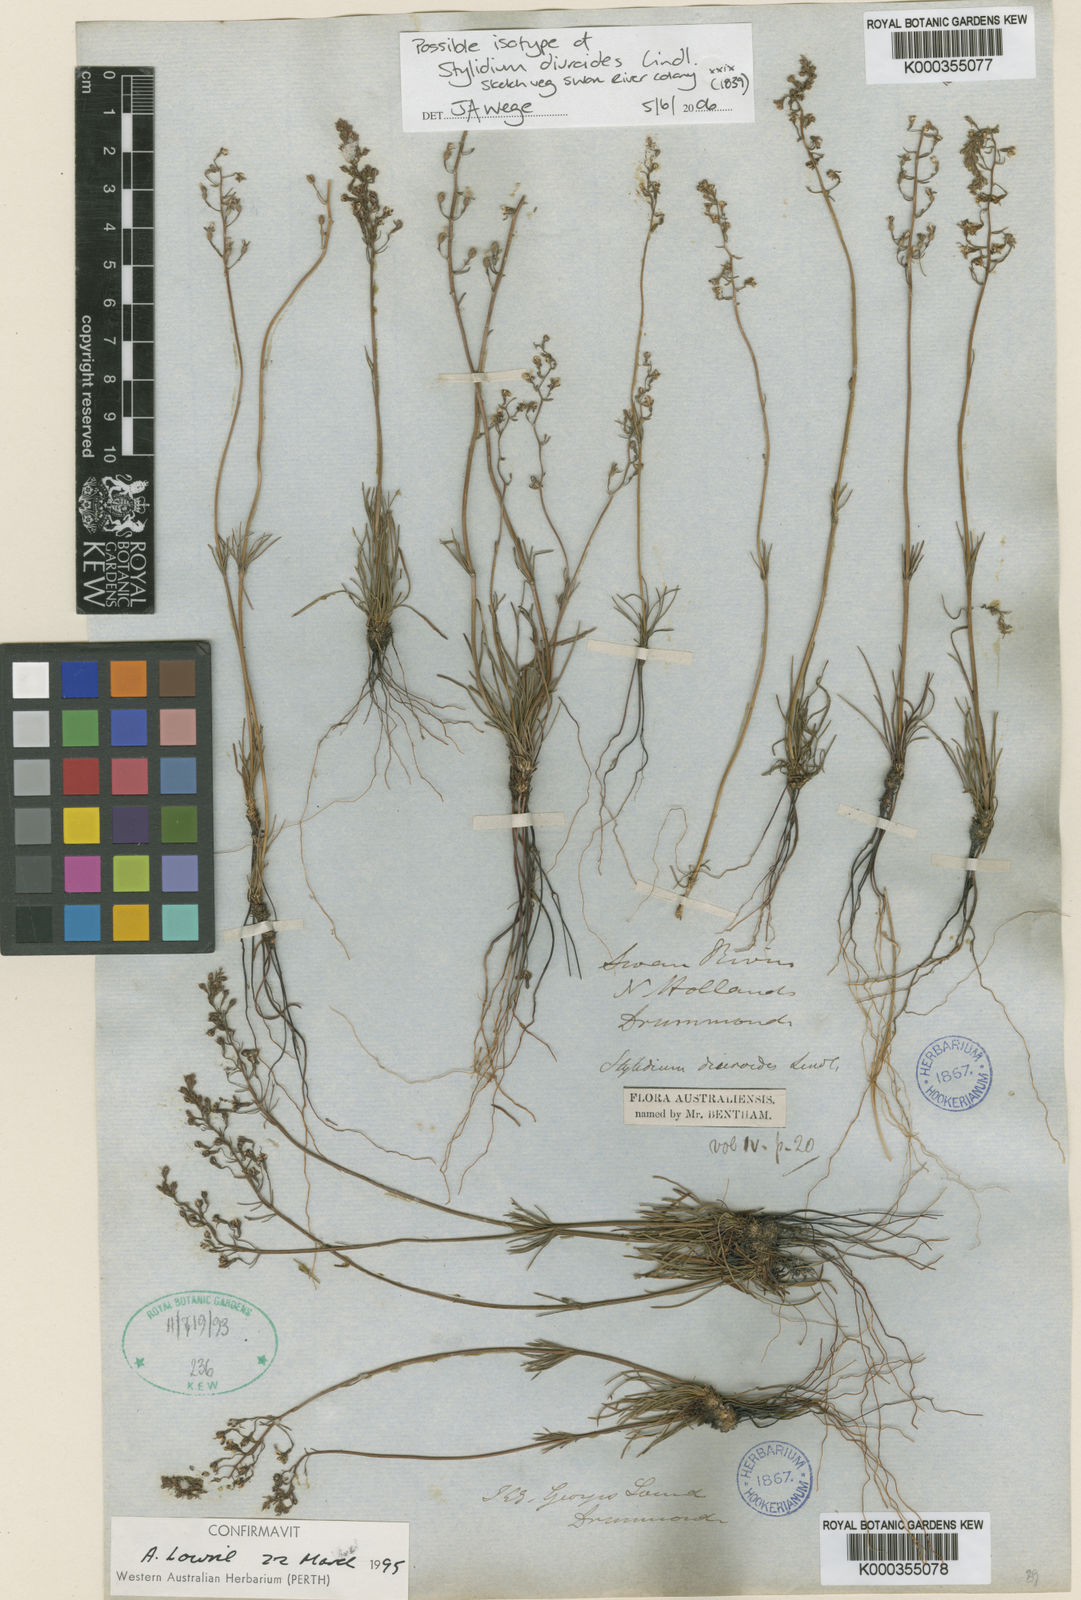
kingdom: Plantae
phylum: Tracheophyta
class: Magnoliopsida
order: Asterales
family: Stylidiaceae
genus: Stylidium
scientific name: Stylidium diuroides
